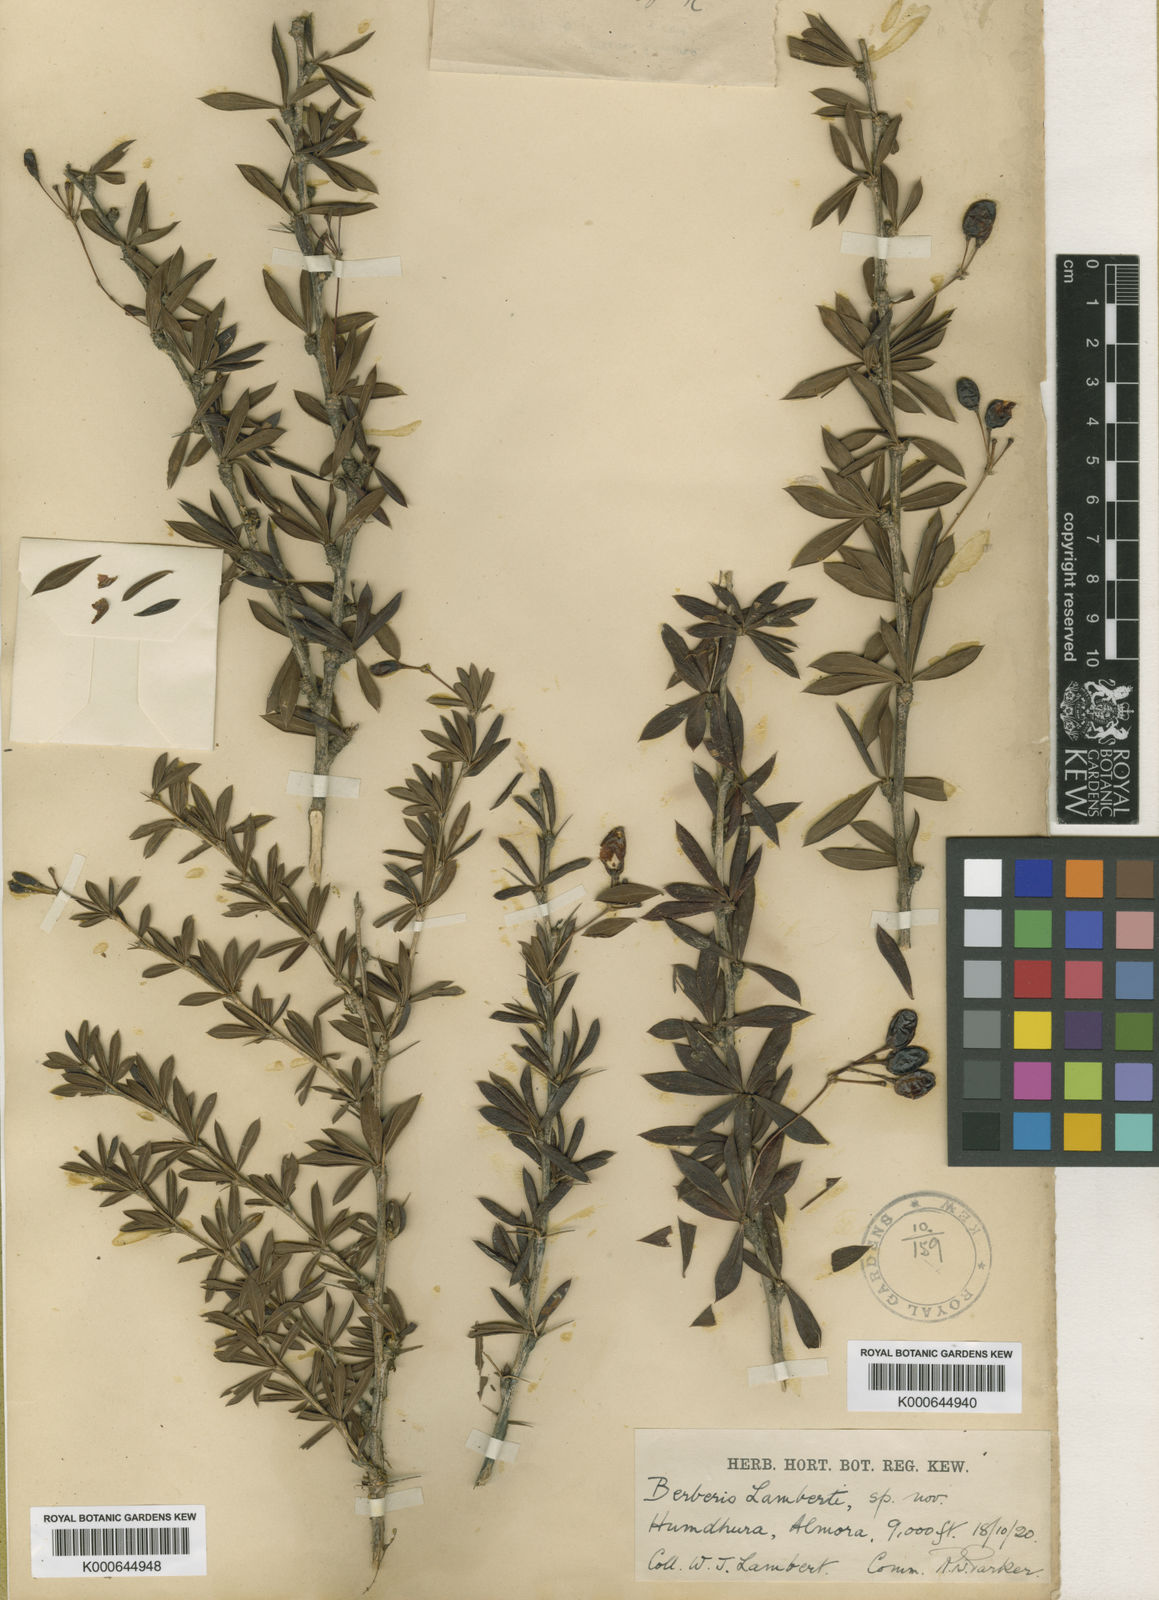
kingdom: Plantae
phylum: Tracheophyta
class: Magnoliopsida
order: Ranunculales
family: Berberidaceae
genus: Berberis
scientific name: Berberis lambertii
